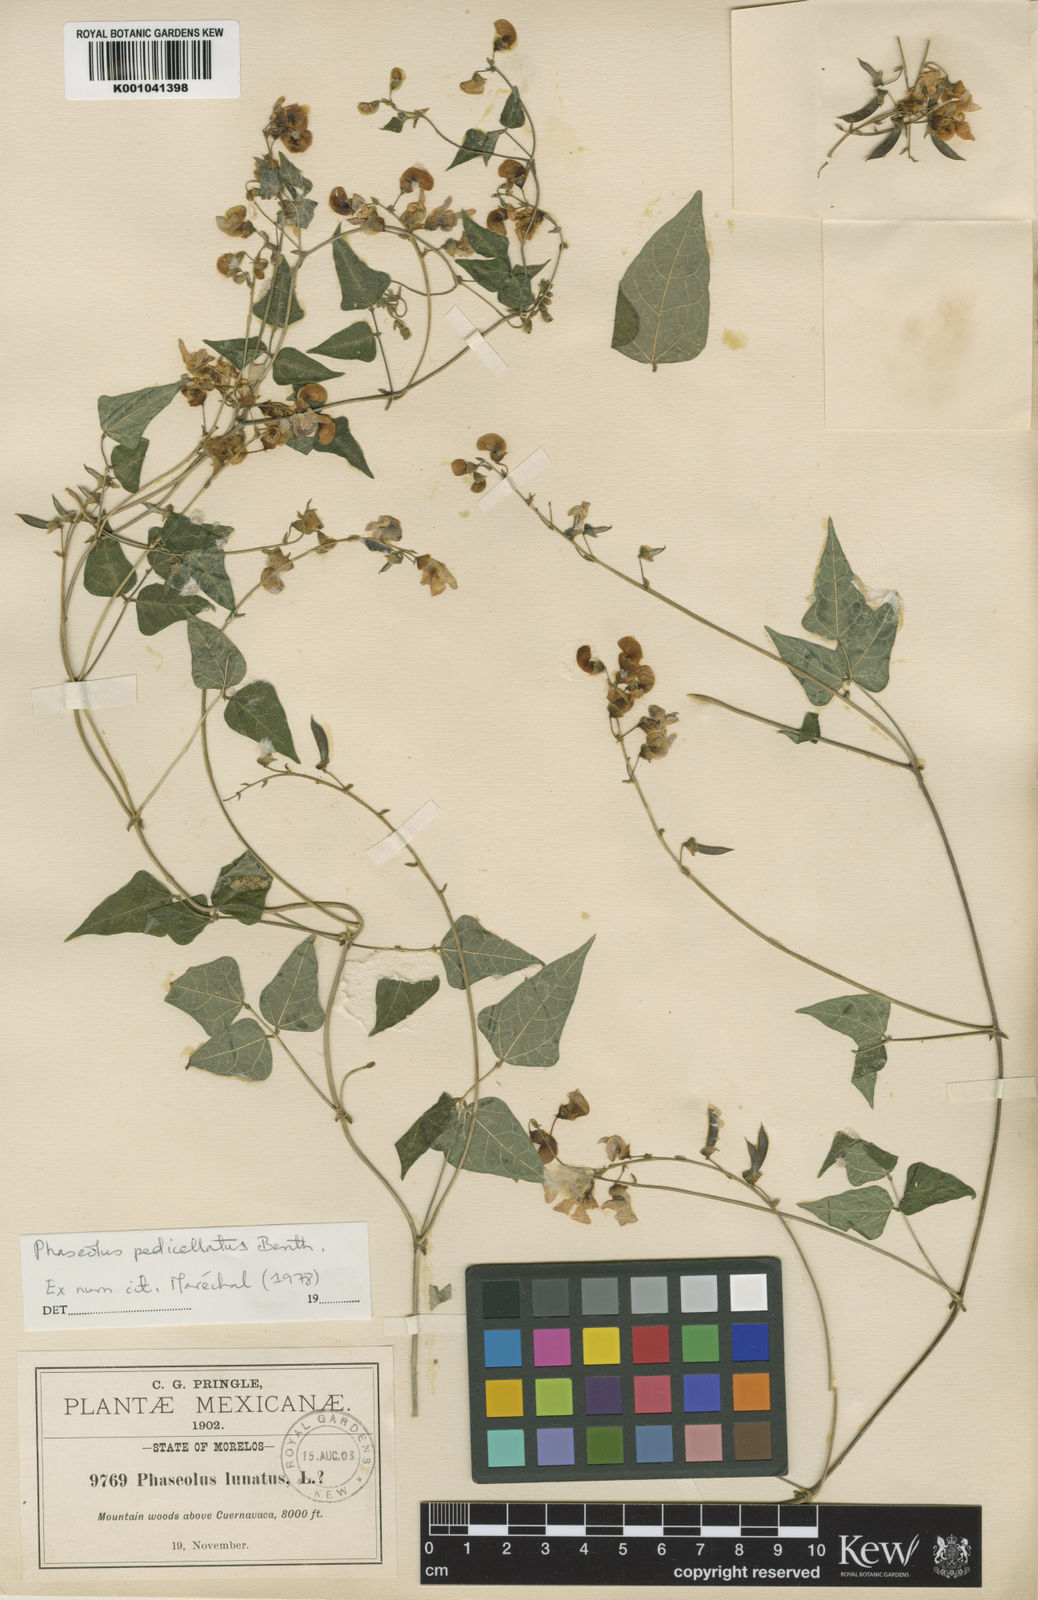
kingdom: Plantae
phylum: Tracheophyta
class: Magnoliopsida
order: Fabales
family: Fabaceae
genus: Phaseolus
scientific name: Phaseolus pedicellatus
